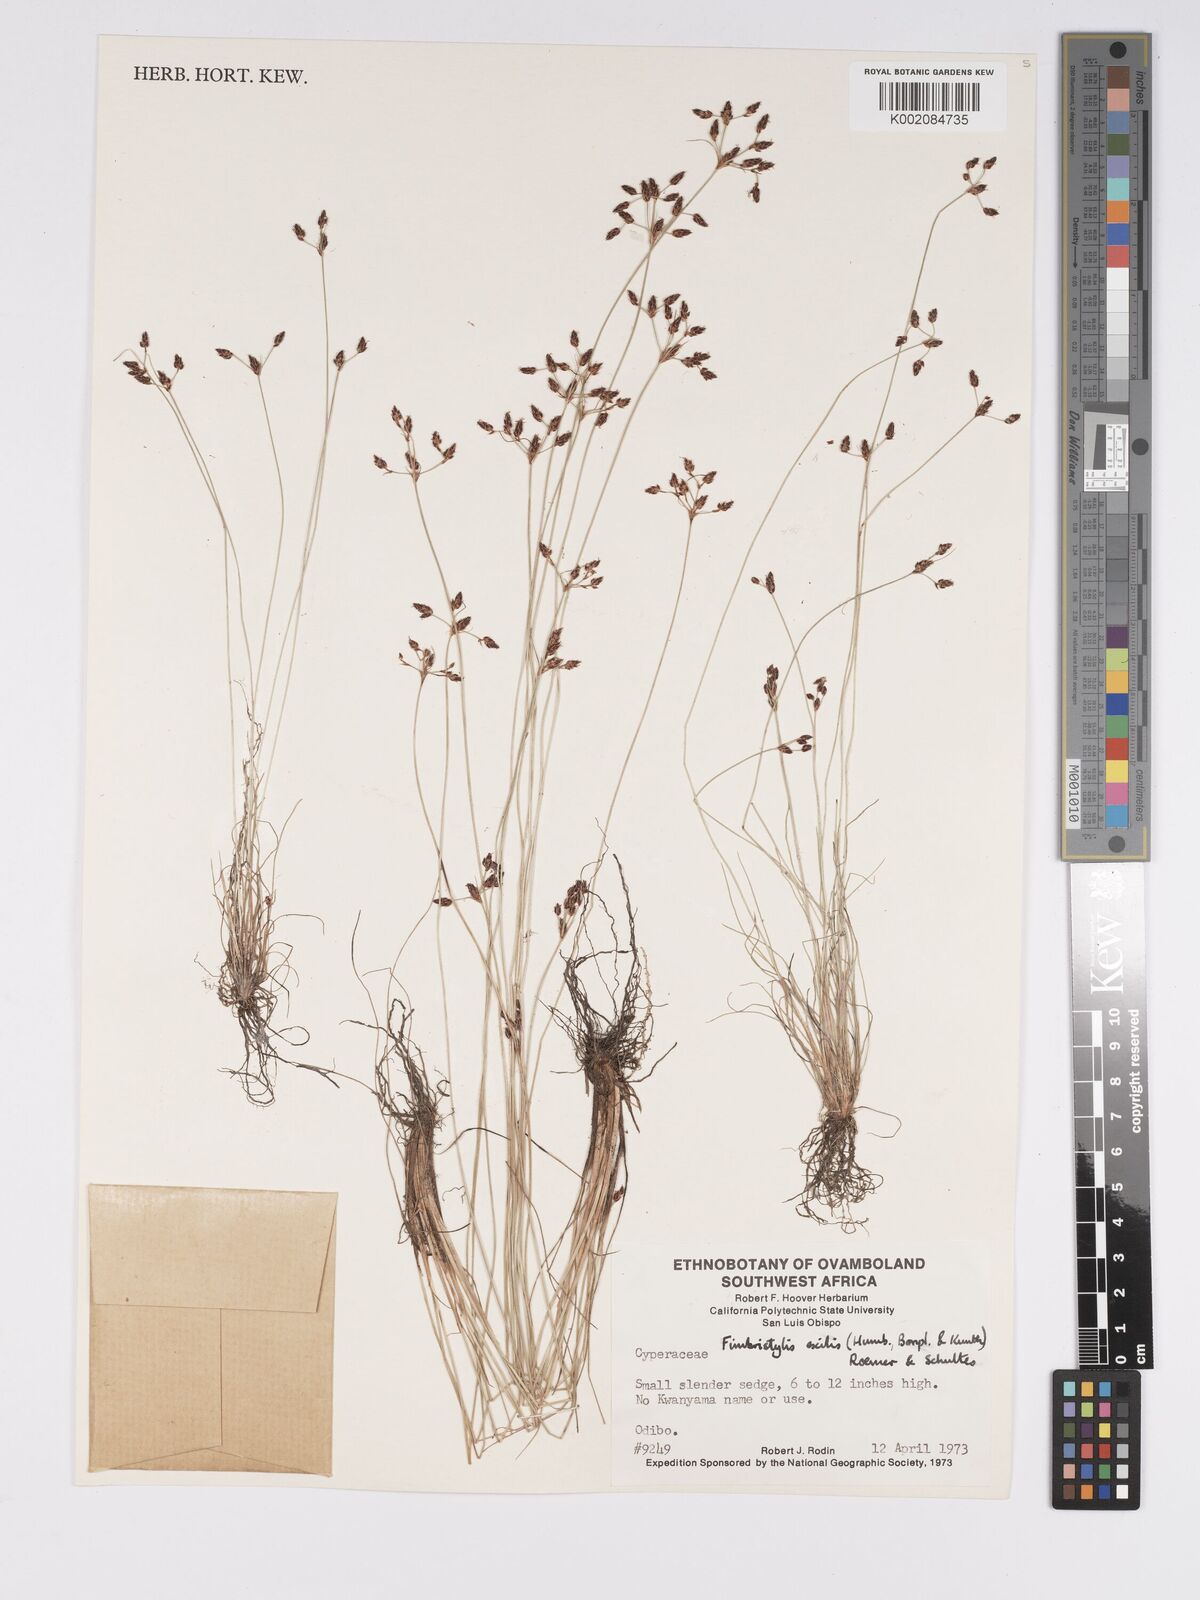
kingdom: Plantae
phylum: Tracheophyta
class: Liliopsida
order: Poales
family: Cyperaceae
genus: Bulbostylis
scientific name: Bulbostylis hispidula
